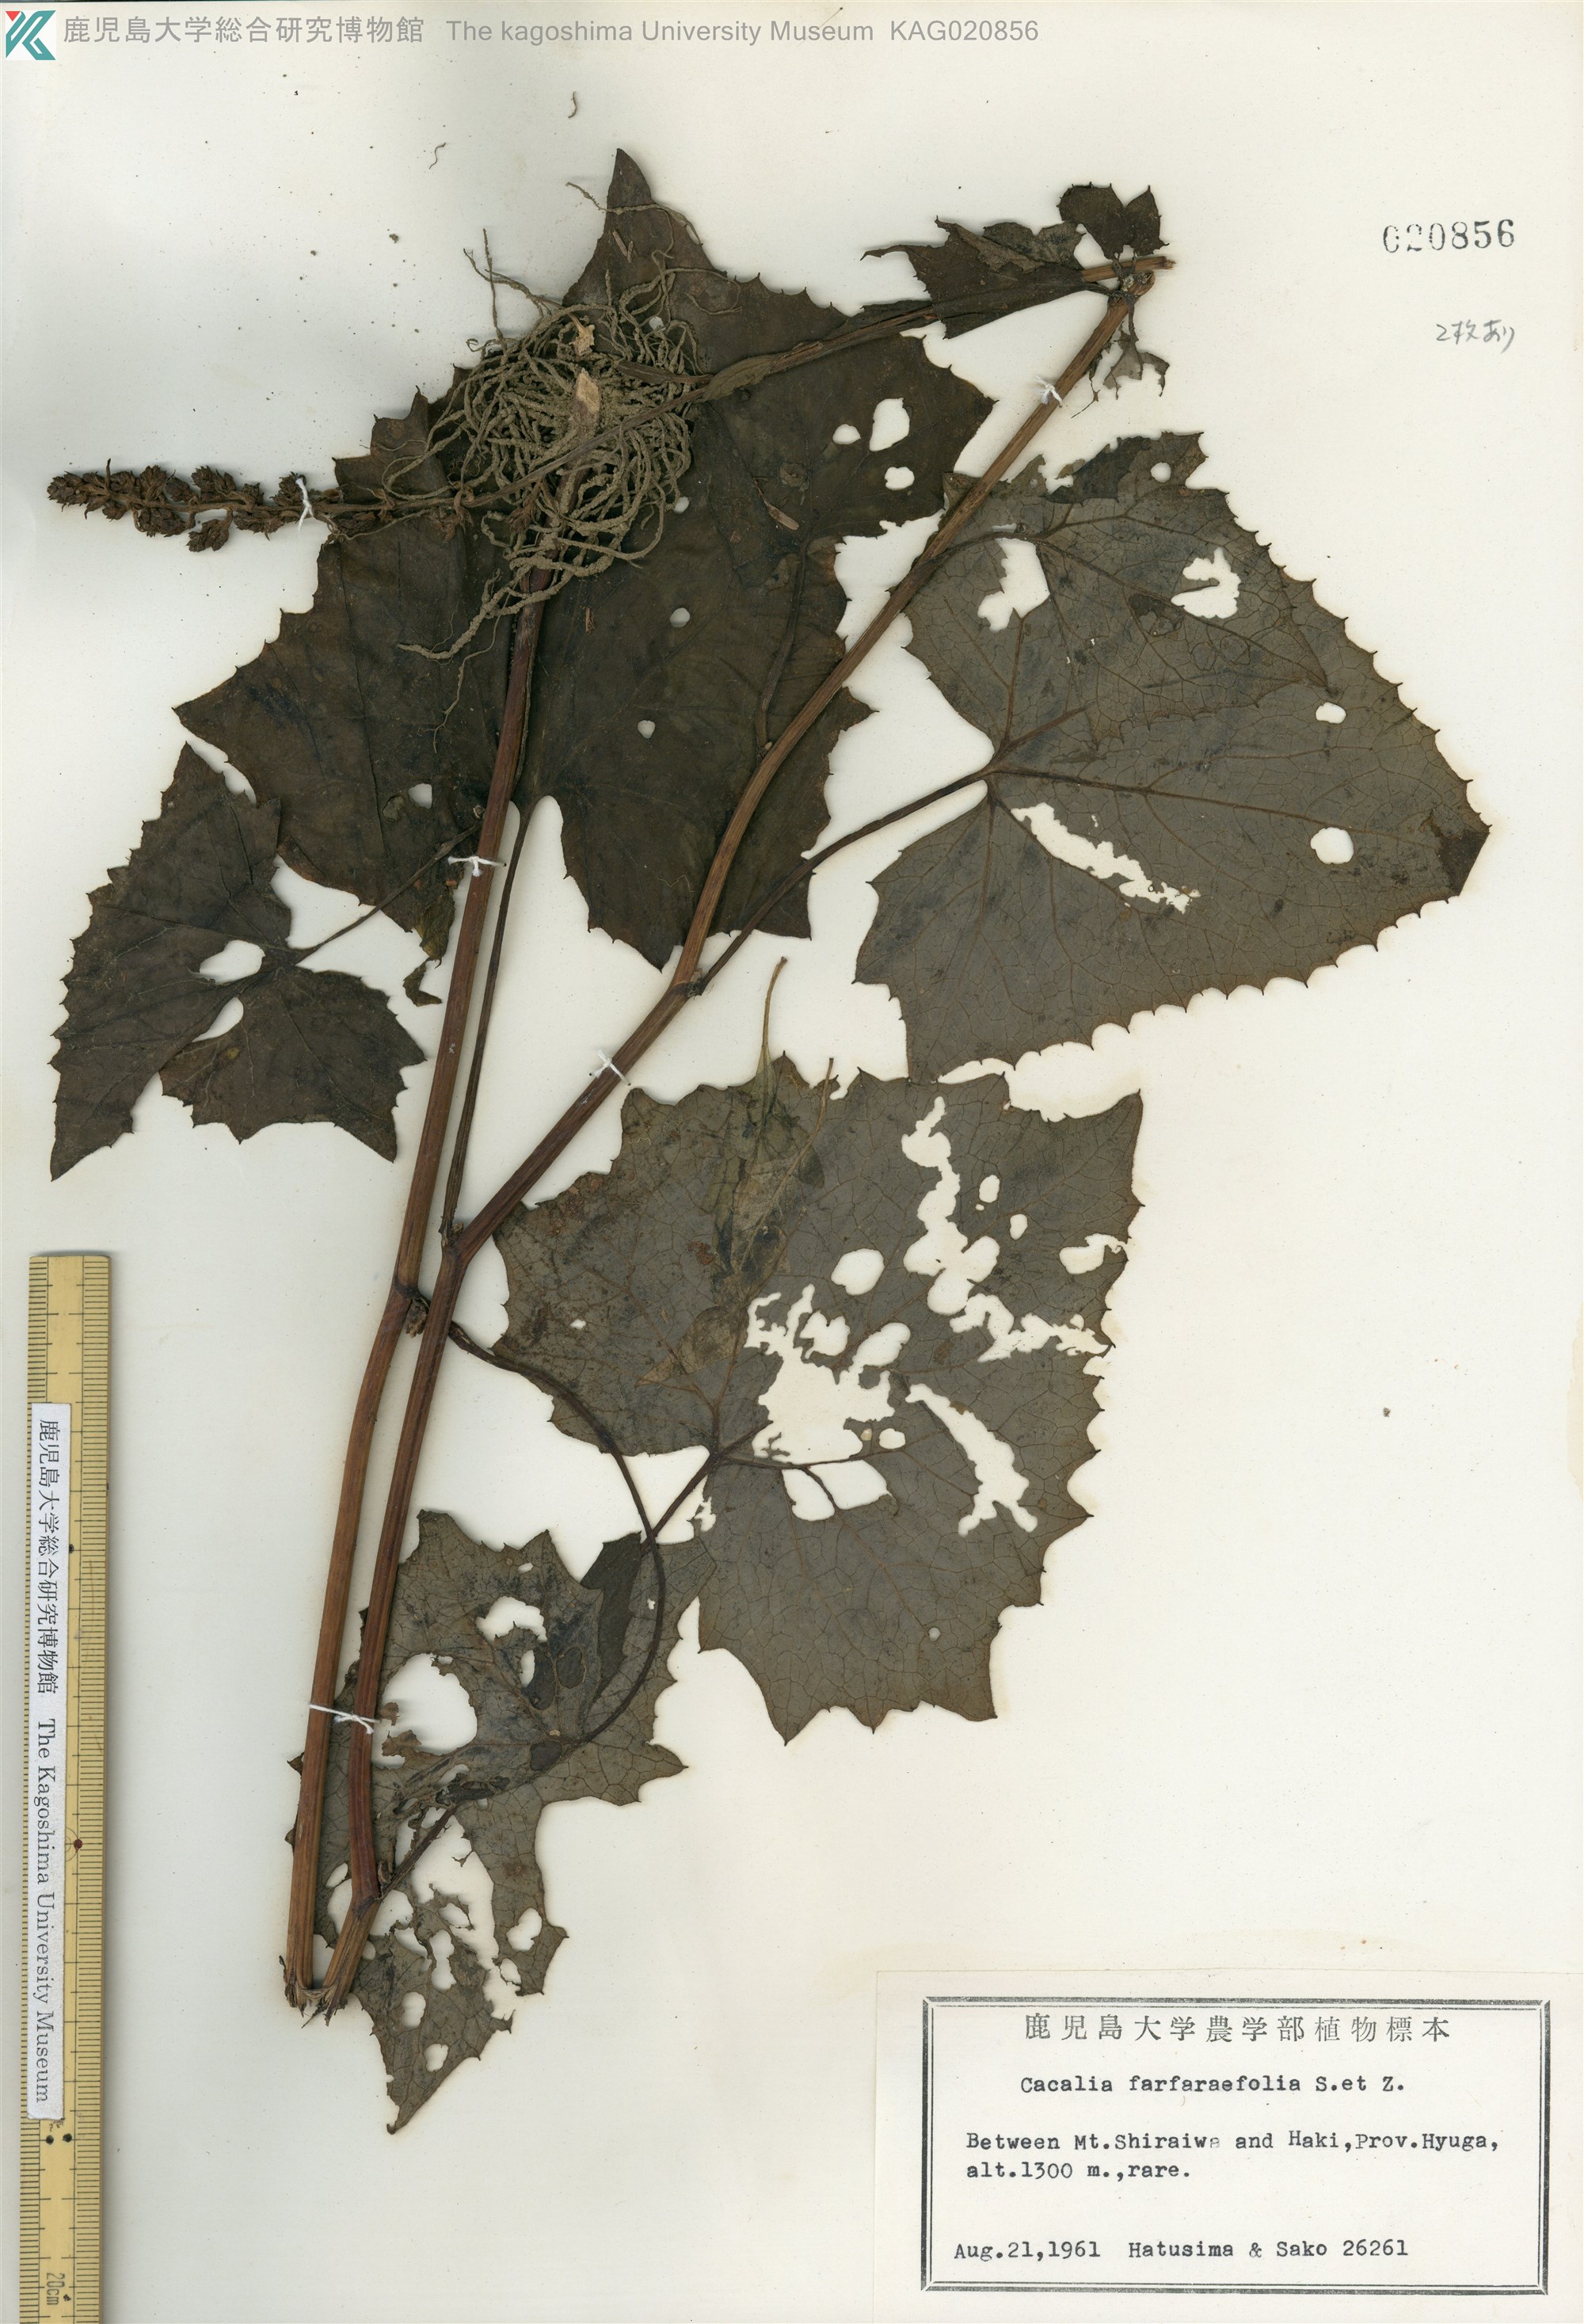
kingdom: Plantae
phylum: Tracheophyta
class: Magnoliopsida
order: Asterales
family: Asteraceae
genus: Parasenecio
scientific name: Parasenecio farfarifolius
